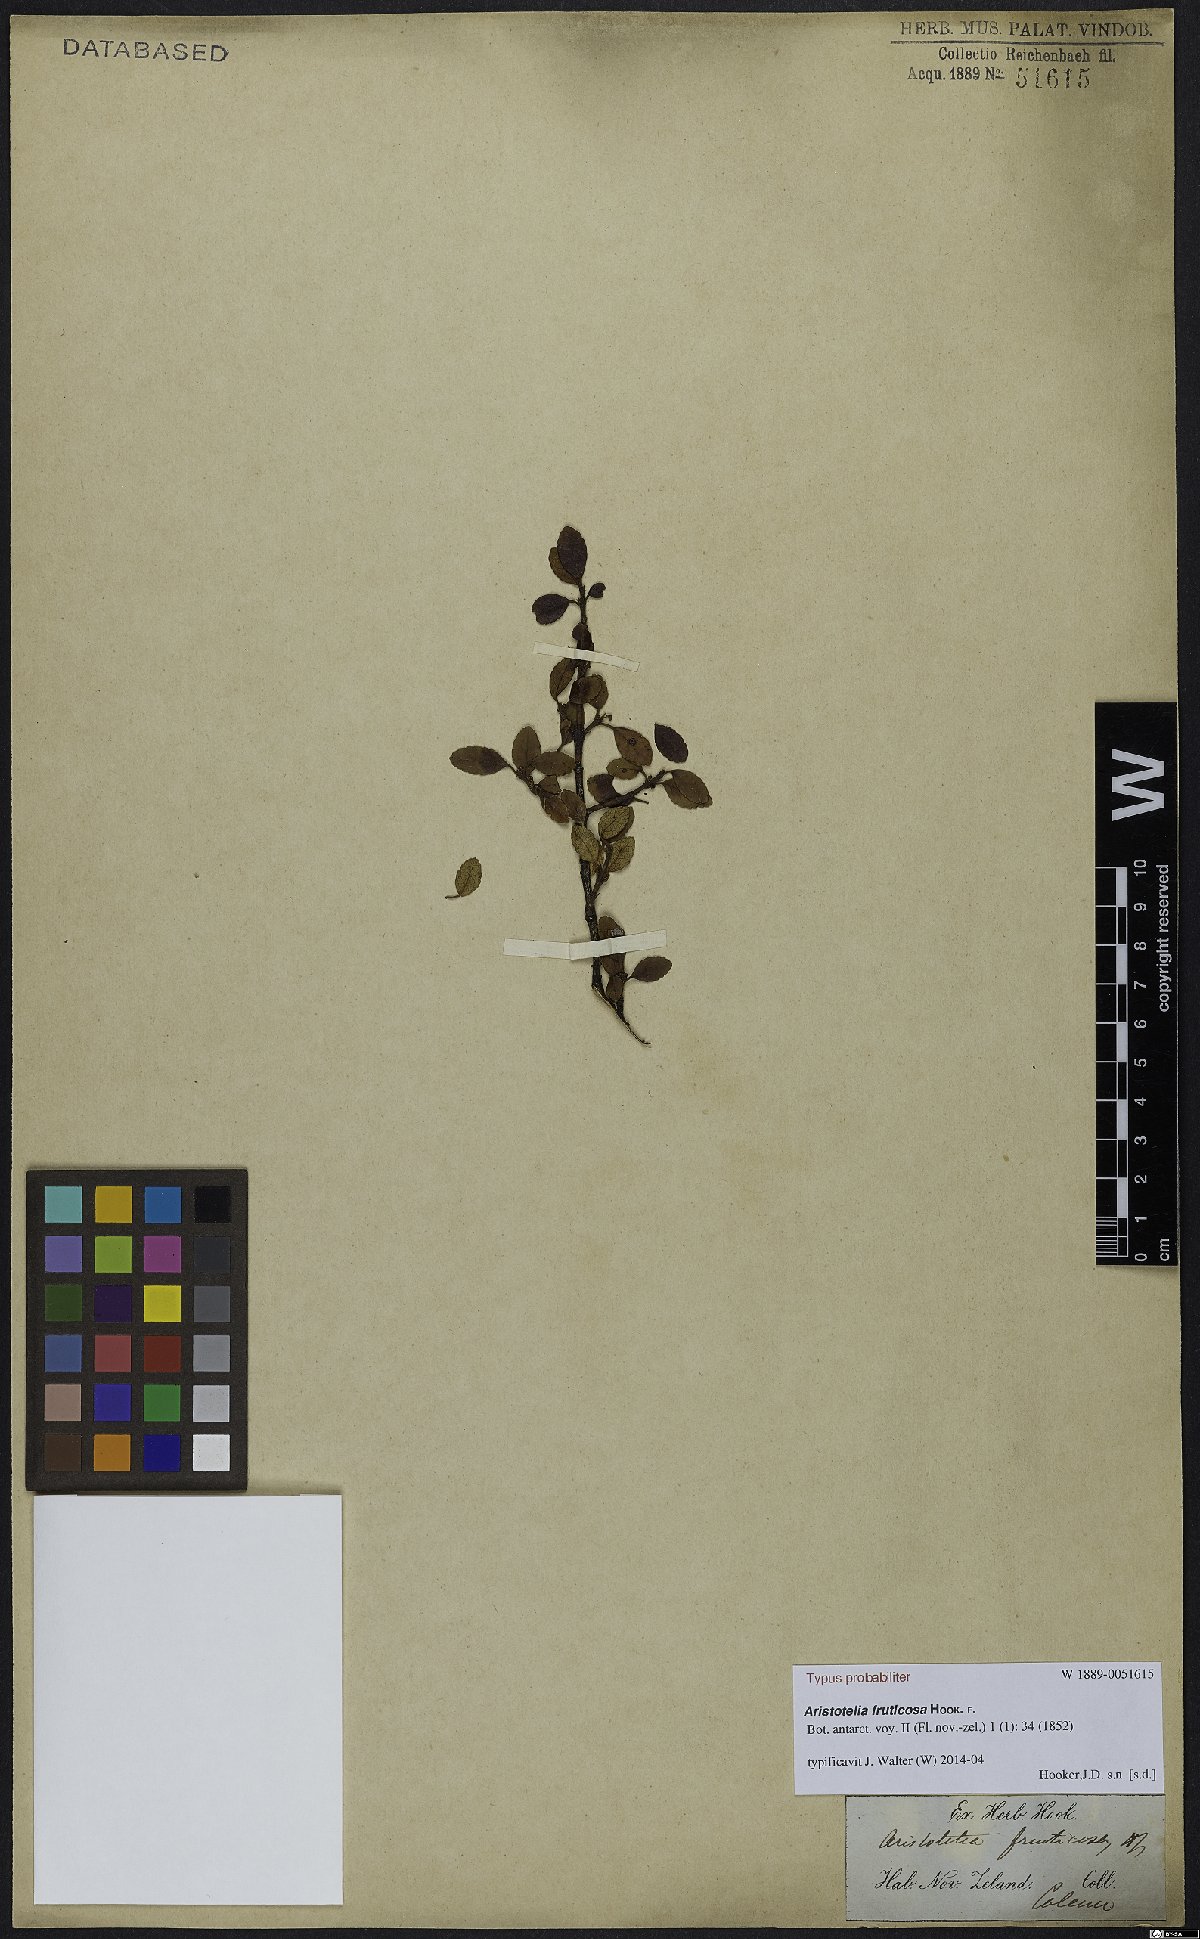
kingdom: Plantae
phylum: Tracheophyta
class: Magnoliopsida
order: Oxalidales
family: Elaeocarpaceae
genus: Aristotelia
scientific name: Aristotelia fruticosa
